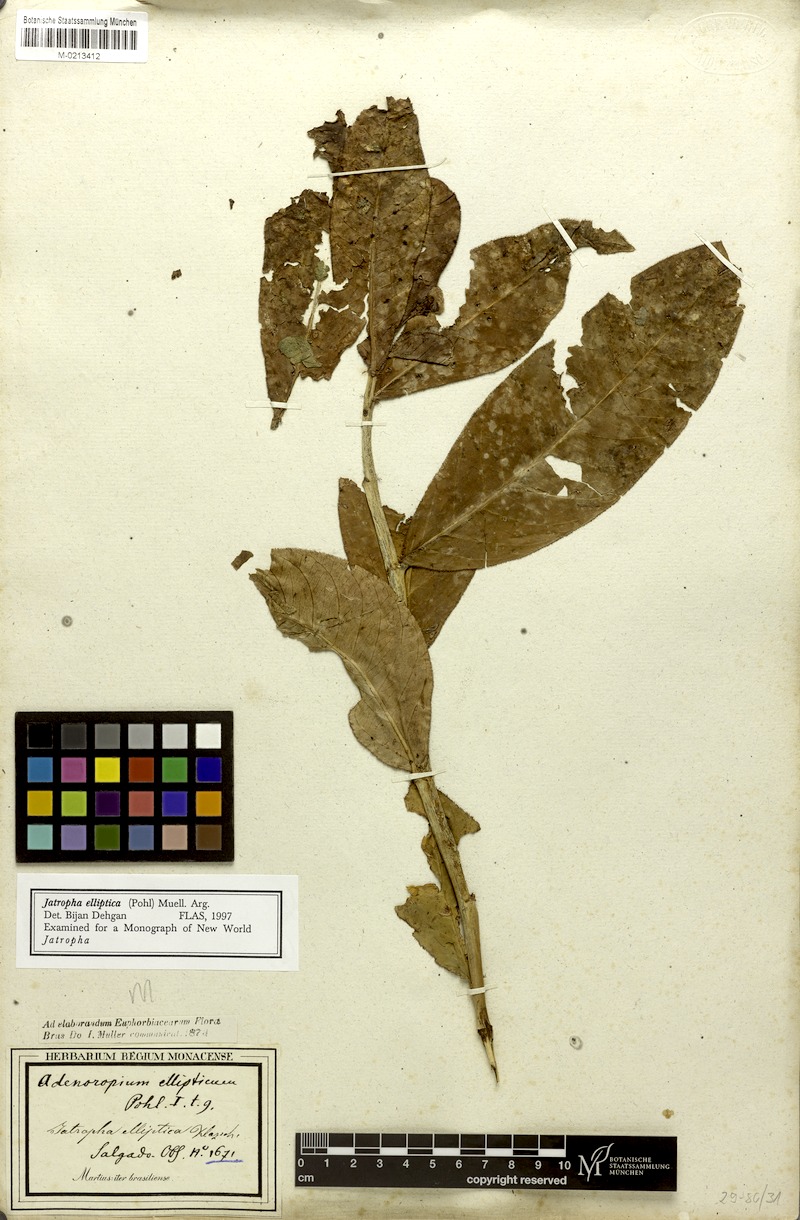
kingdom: Plantae
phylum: Tracheophyta
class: Magnoliopsida
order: Malpighiales
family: Euphorbiaceae
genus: Jatropha
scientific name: Jatropha elliptica
